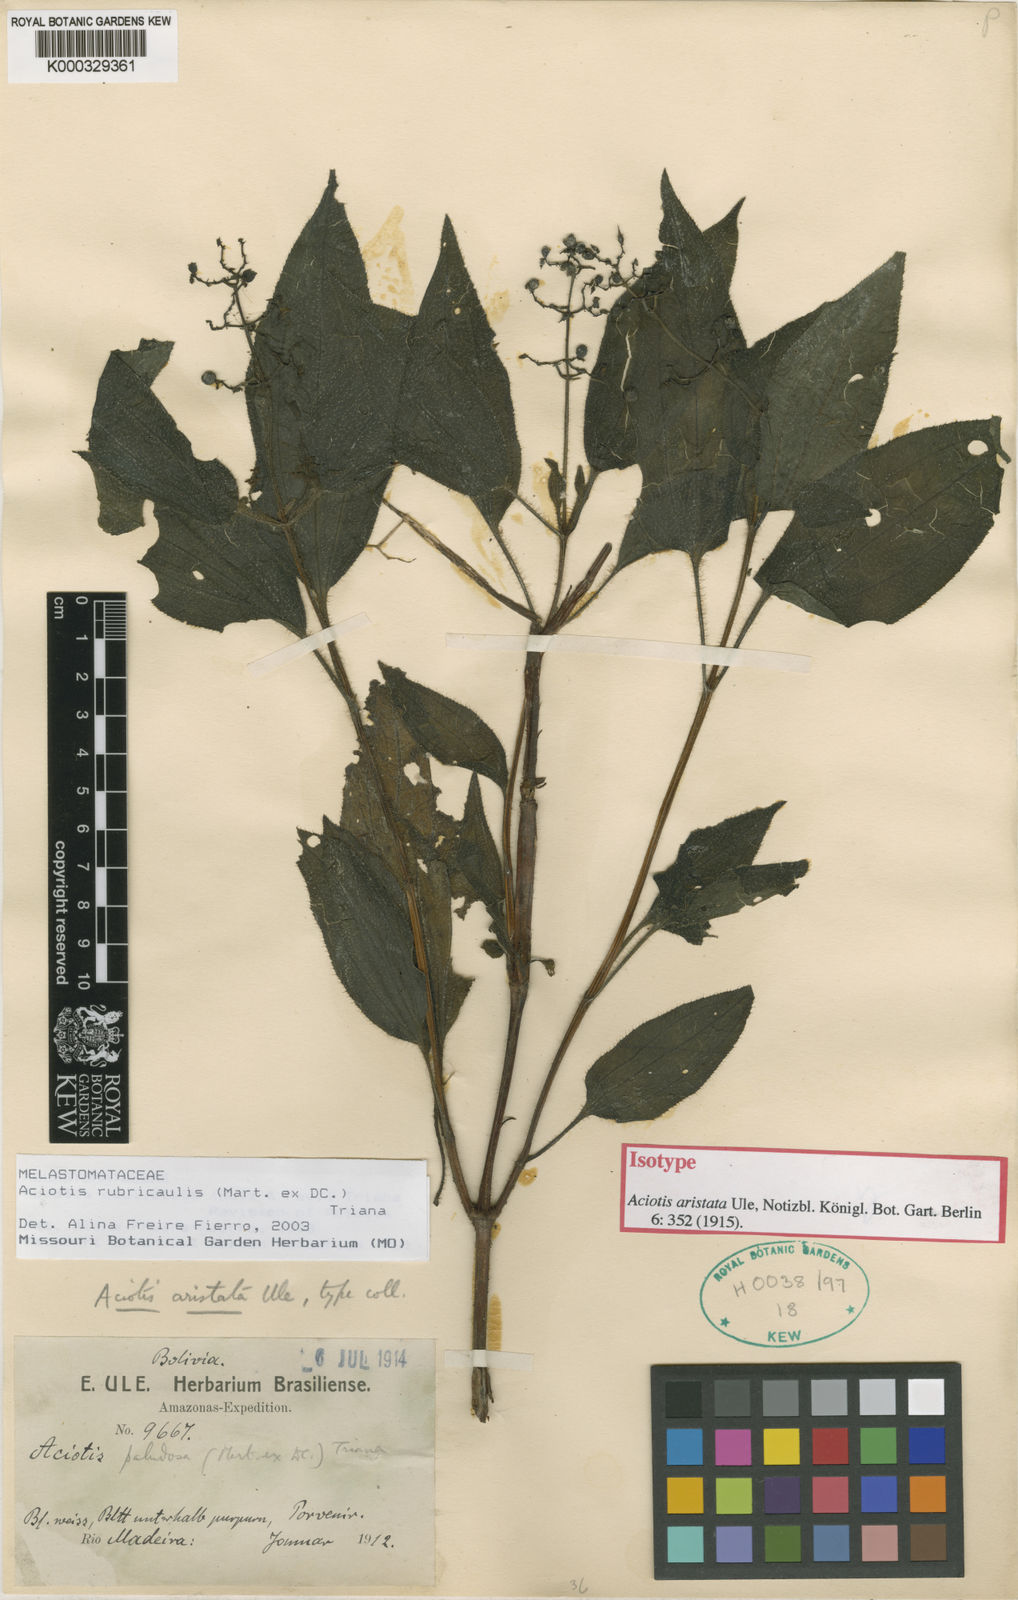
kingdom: Plantae
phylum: Tracheophyta
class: Magnoliopsida
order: Myrtales
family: Melastomataceae
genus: Aciotis
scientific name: Aciotis rubricaulis
